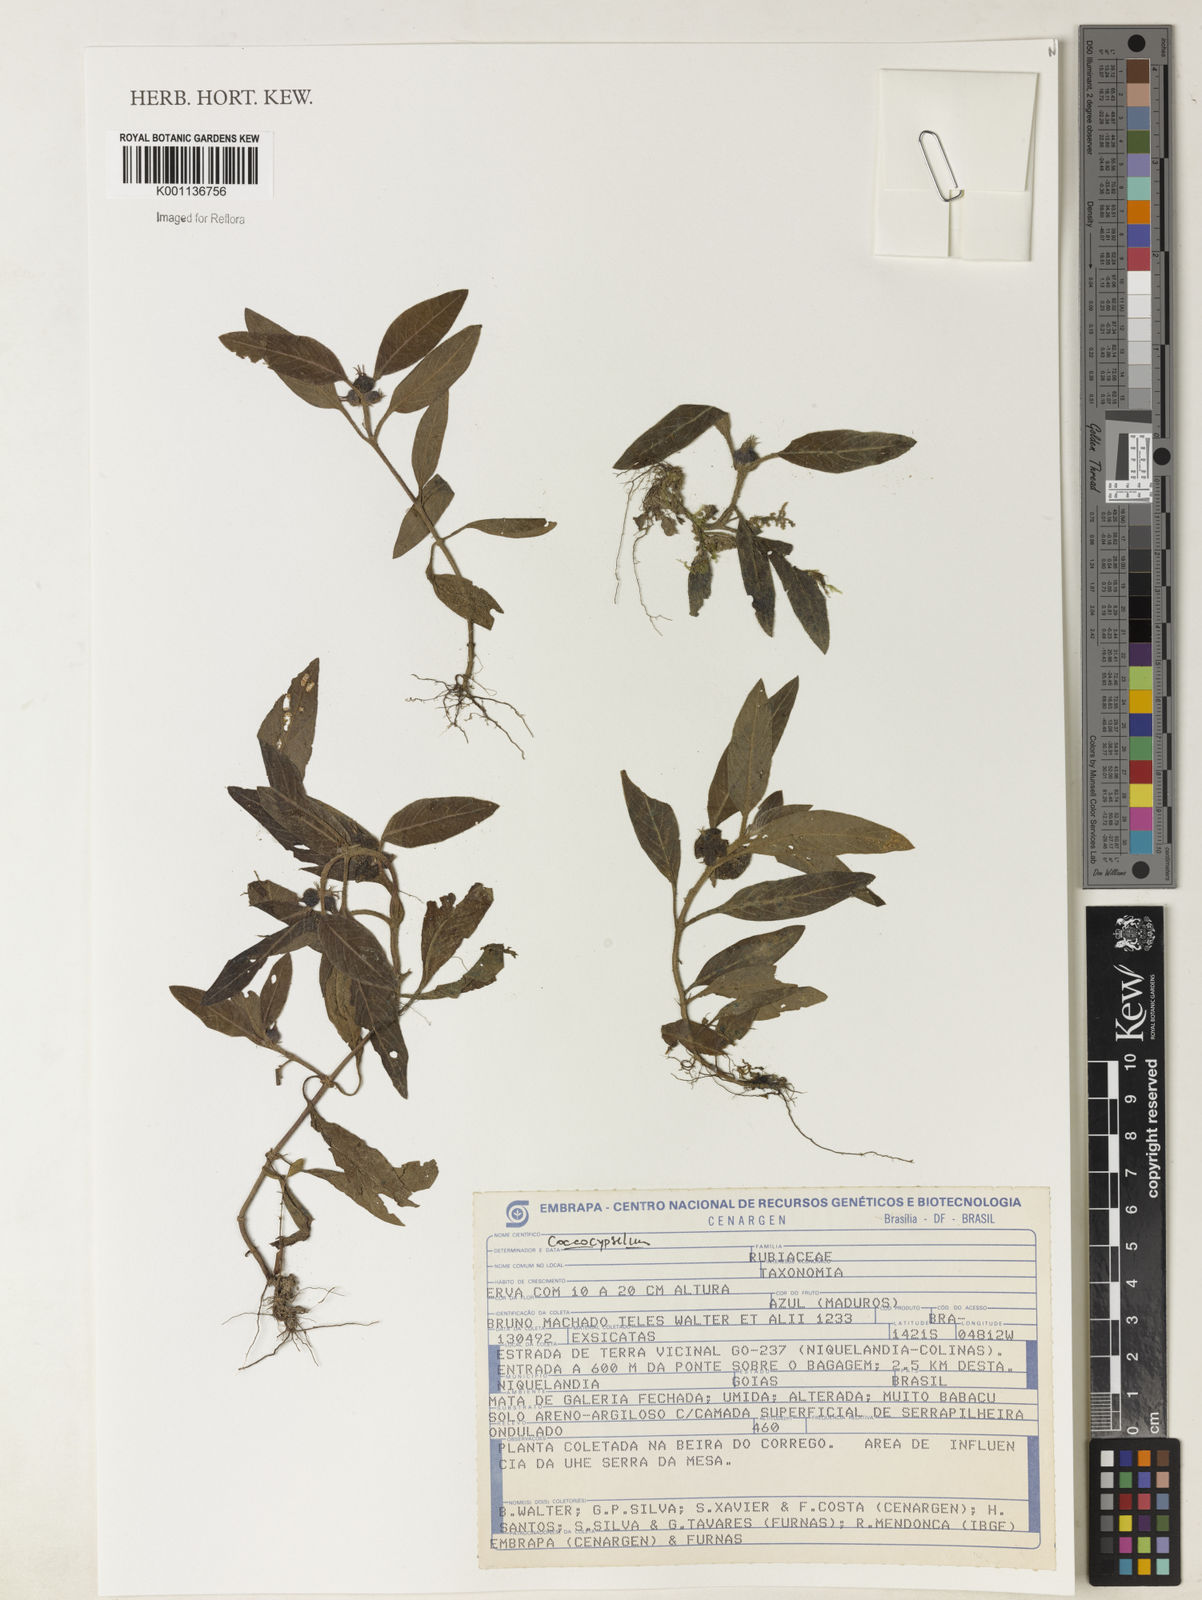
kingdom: Plantae
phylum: Tracheophyta
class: Magnoliopsida
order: Gentianales
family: Rubiaceae
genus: Coccocypselum
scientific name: Coccocypselum
